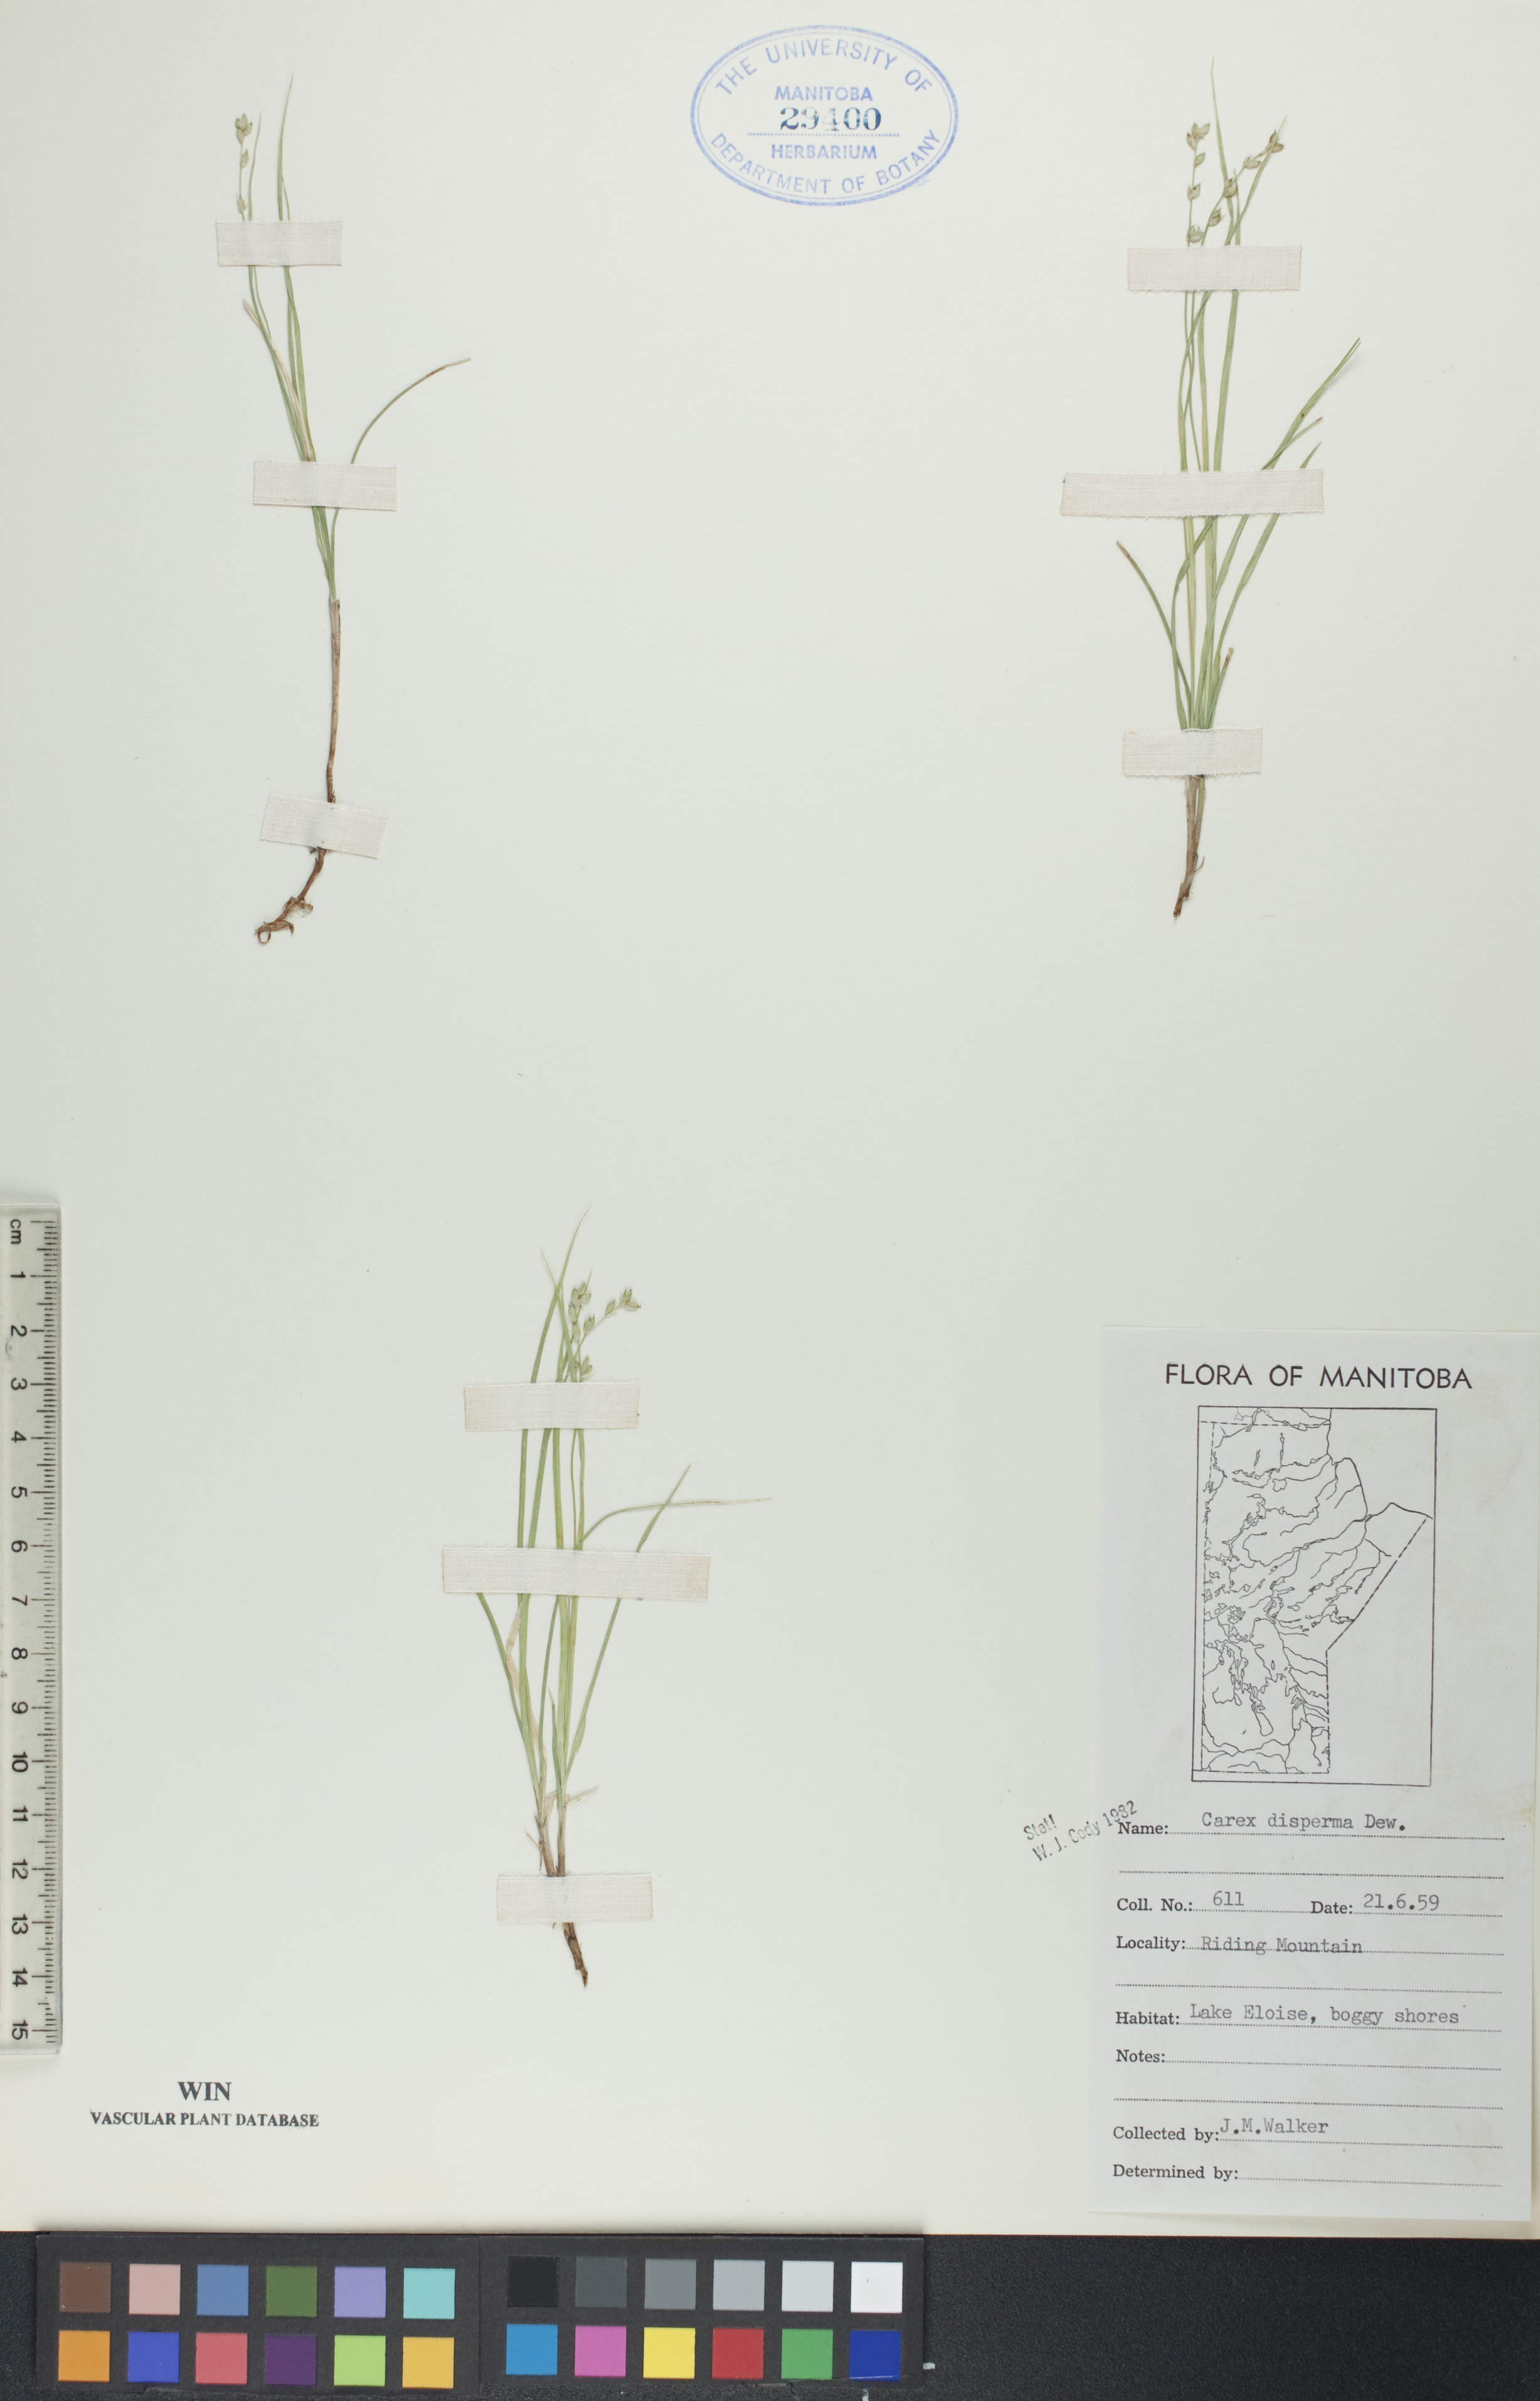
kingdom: Plantae
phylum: Tracheophyta
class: Liliopsida
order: Poales
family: Cyperaceae
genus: Carex
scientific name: Carex disperma
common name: Short-leaved sedge
